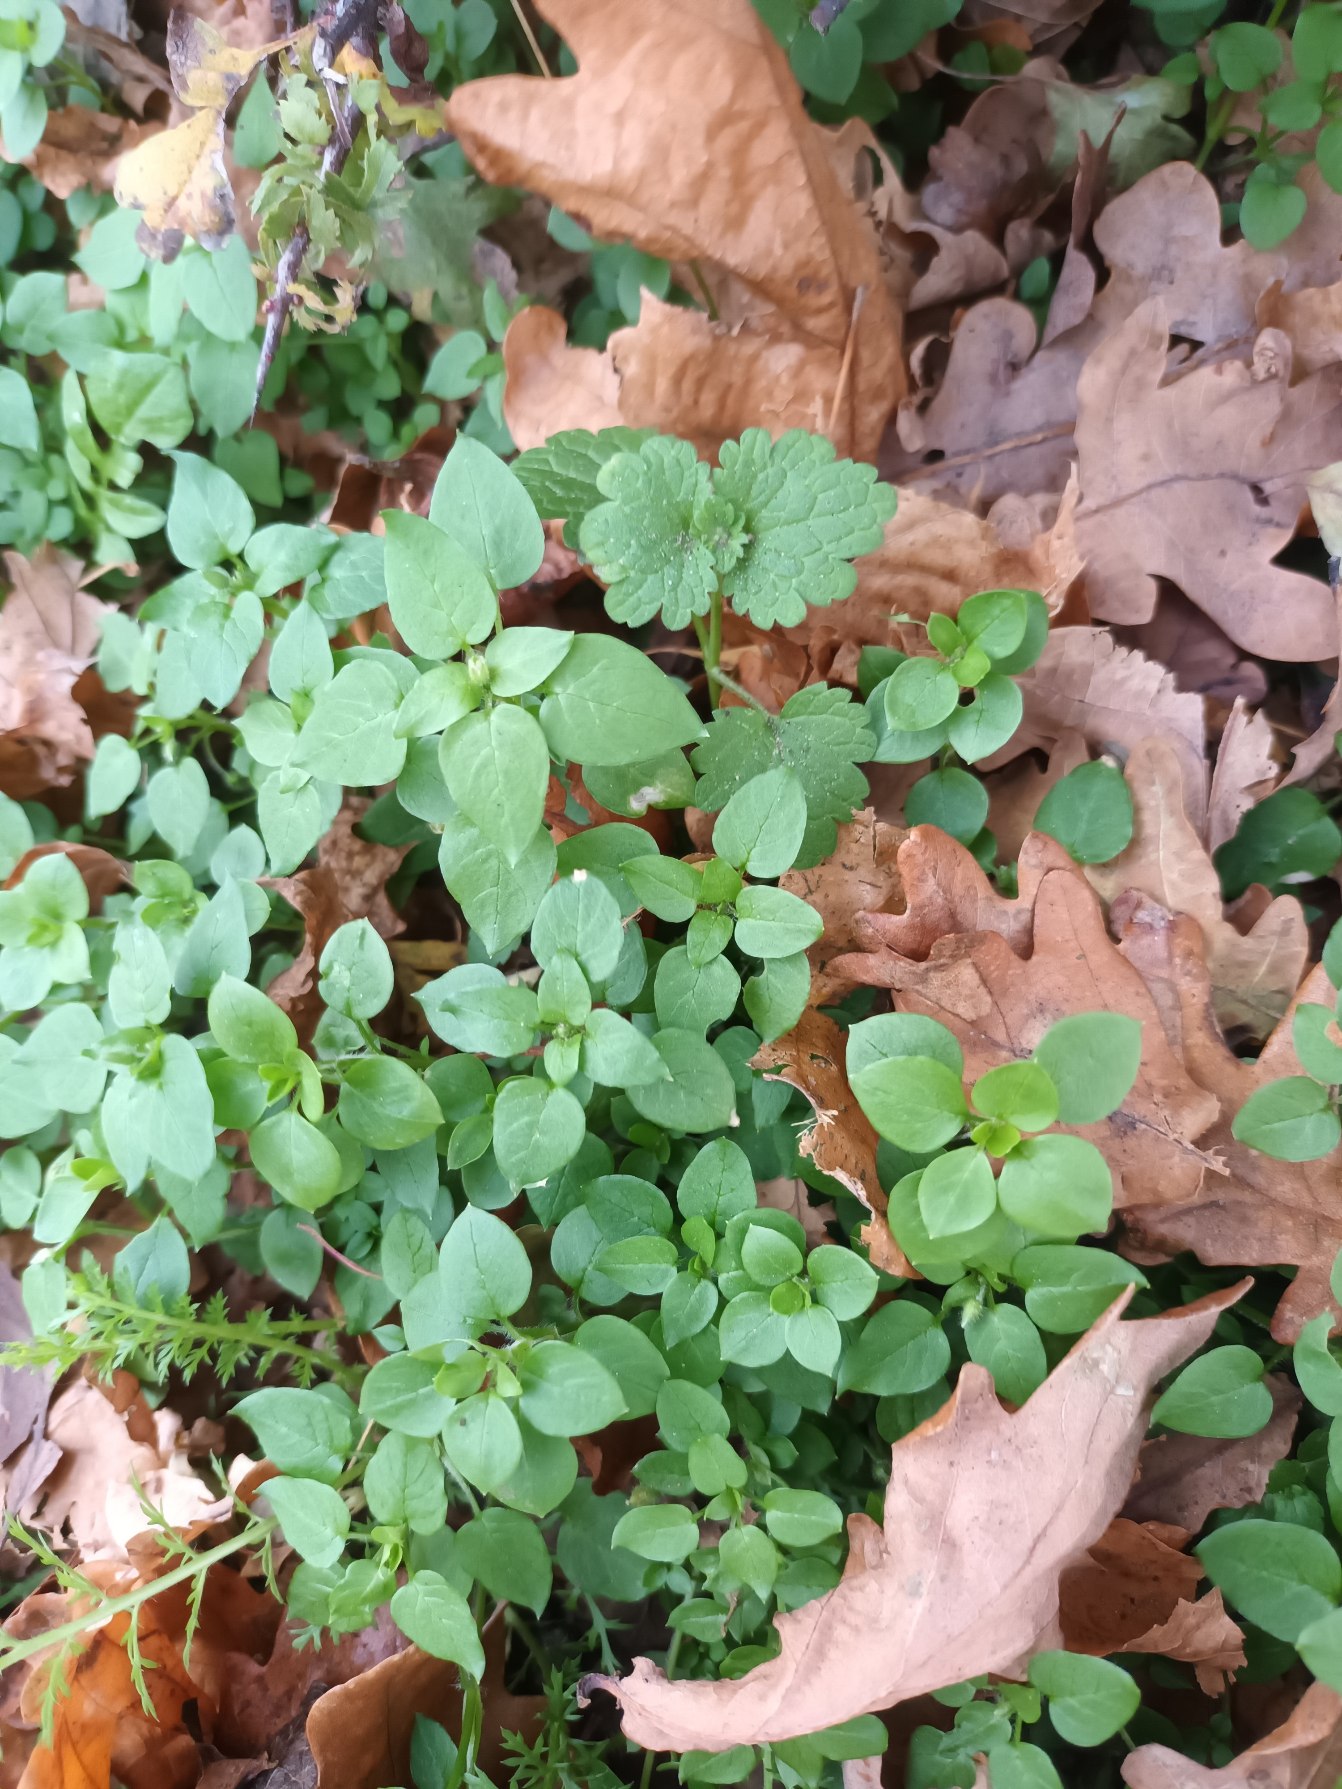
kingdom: Plantae
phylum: Tracheophyta
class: Magnoliopsida
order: Caryophyllales
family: Caryophyllaceae
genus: Stellaria
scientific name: Stellaria media
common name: Almindelig fuglegræs
